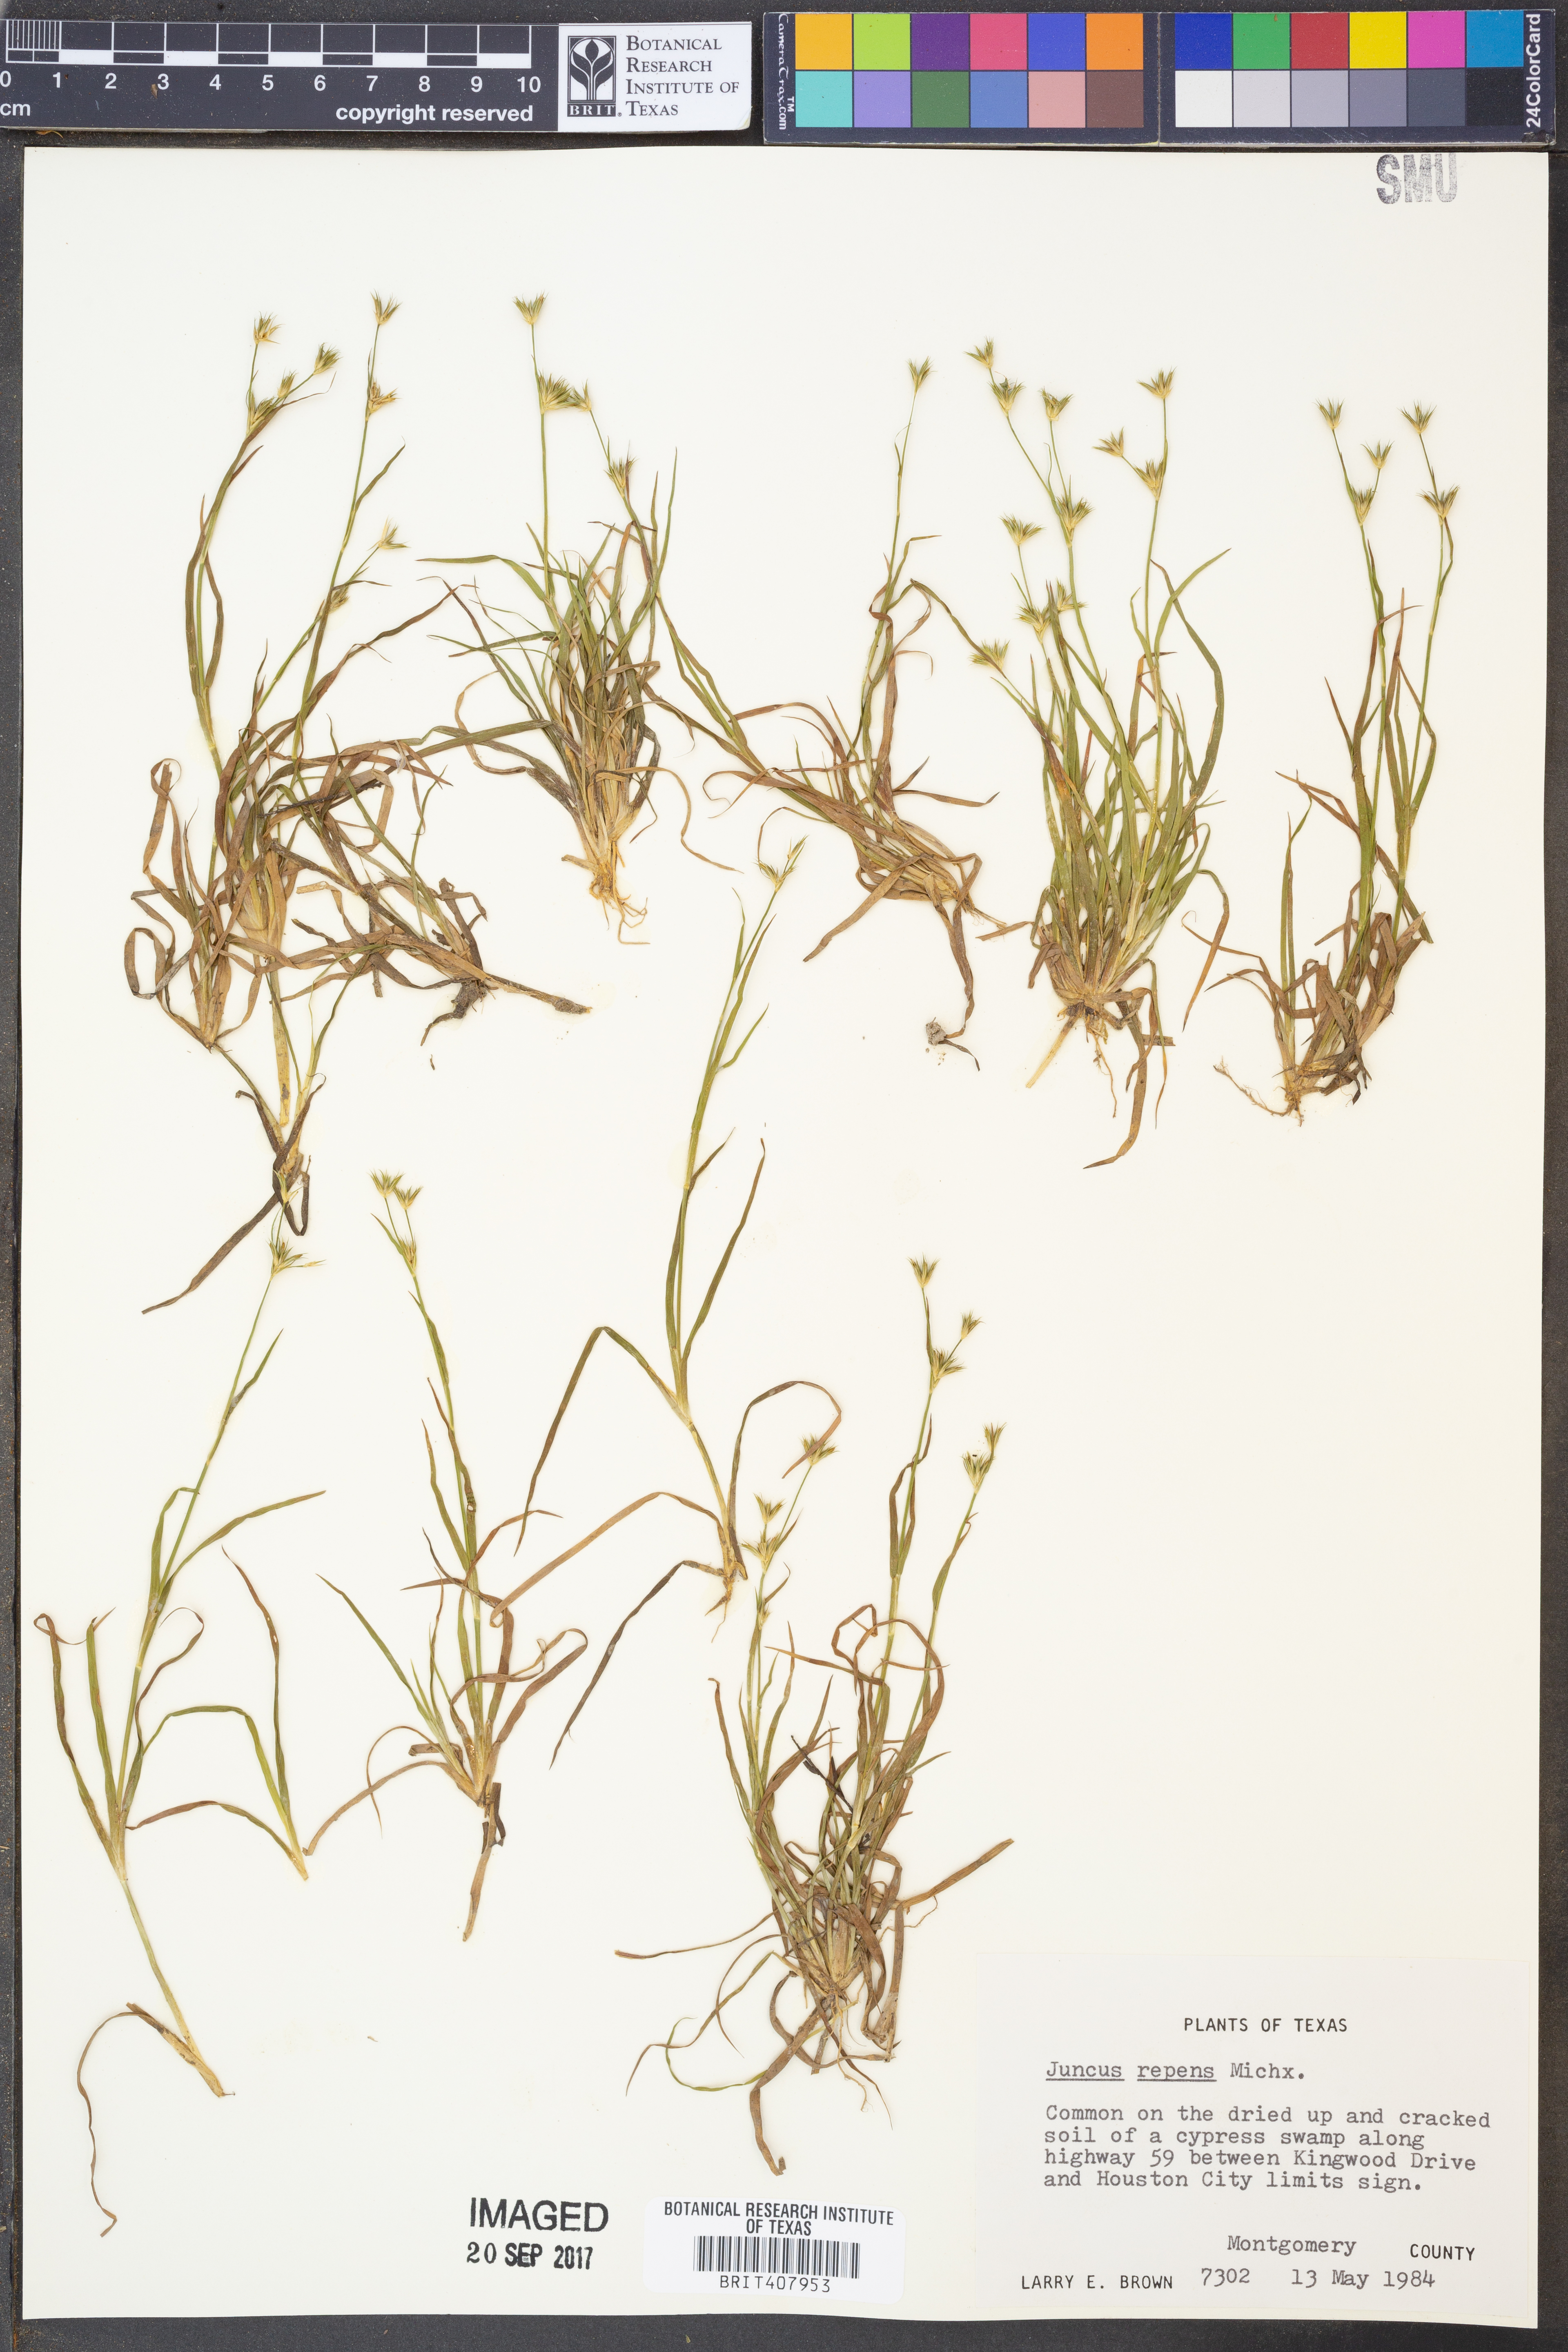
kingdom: Plantae
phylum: Tracheophyta
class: Liliopsida
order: Poales
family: Juncaceae
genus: Juncus
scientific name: Juncus repens
